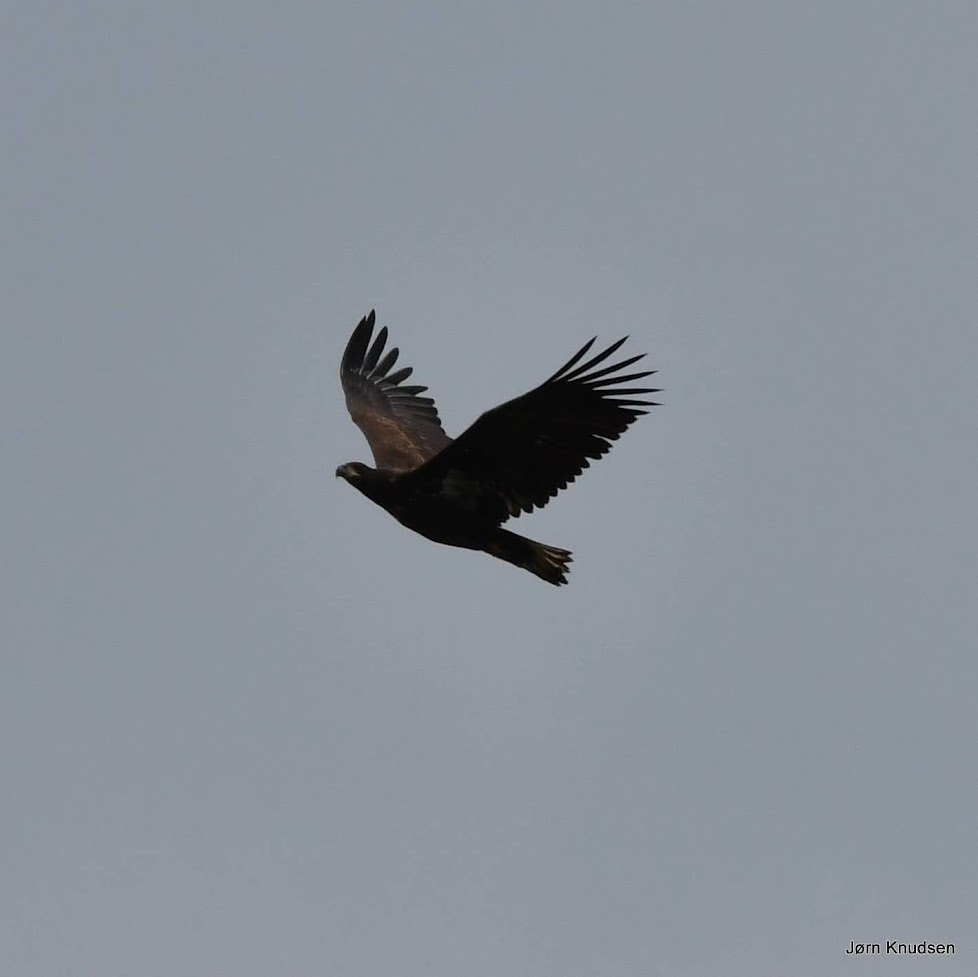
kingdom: Animalia
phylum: Chordata
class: Aves
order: Accipitriformes
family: Accipitridae
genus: Haliaeetus
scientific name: Haliaeetus albicilla
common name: Havørn
